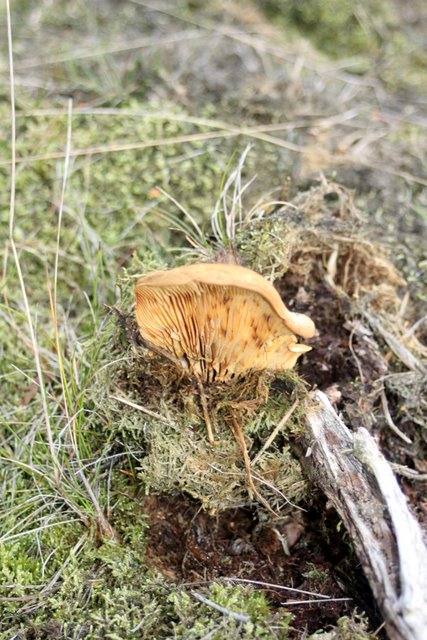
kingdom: Fungi
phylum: Basidiomycota
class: Agaricomycetes
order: Boletales
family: Tapinellaceae
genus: Tapinella
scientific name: Tapinella atrotomentosa
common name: sortfiltet viftesvamp
